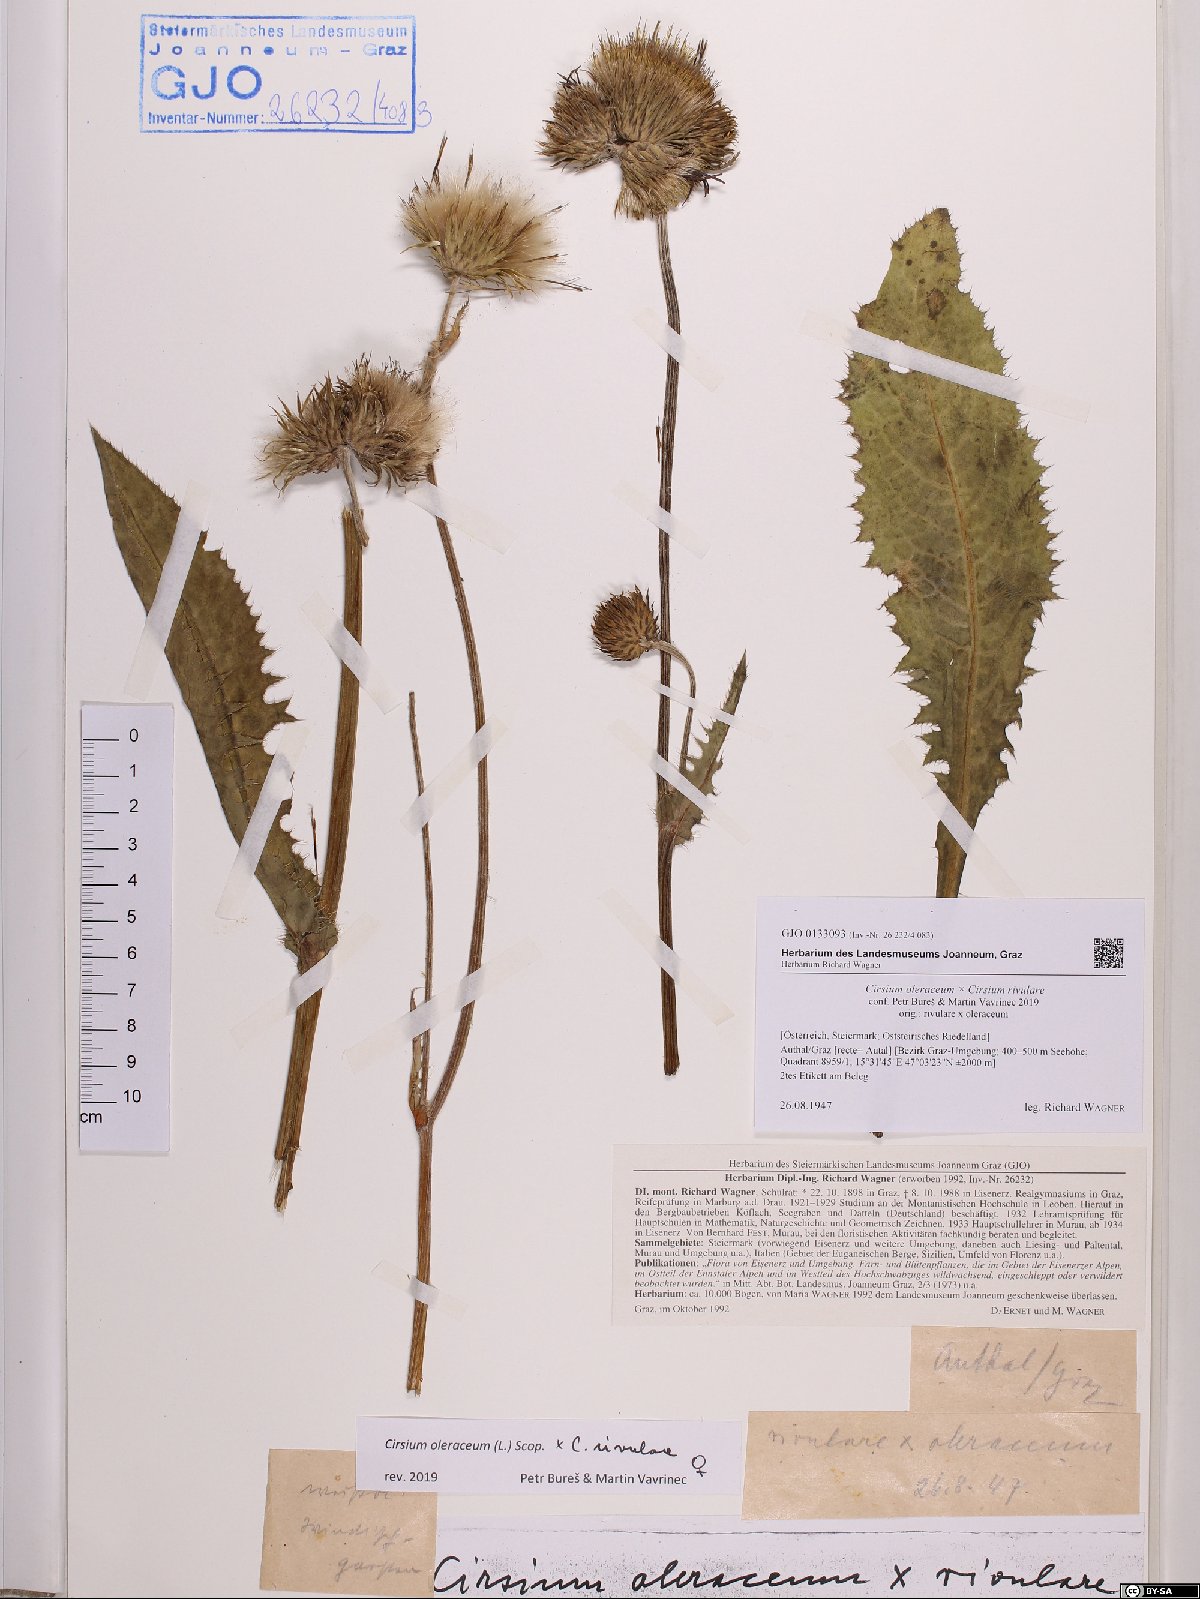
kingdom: Plantae
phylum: Tracheophyta
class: Magnoliopsida
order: Asterales
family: Asteraceae
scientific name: Asteraceae
